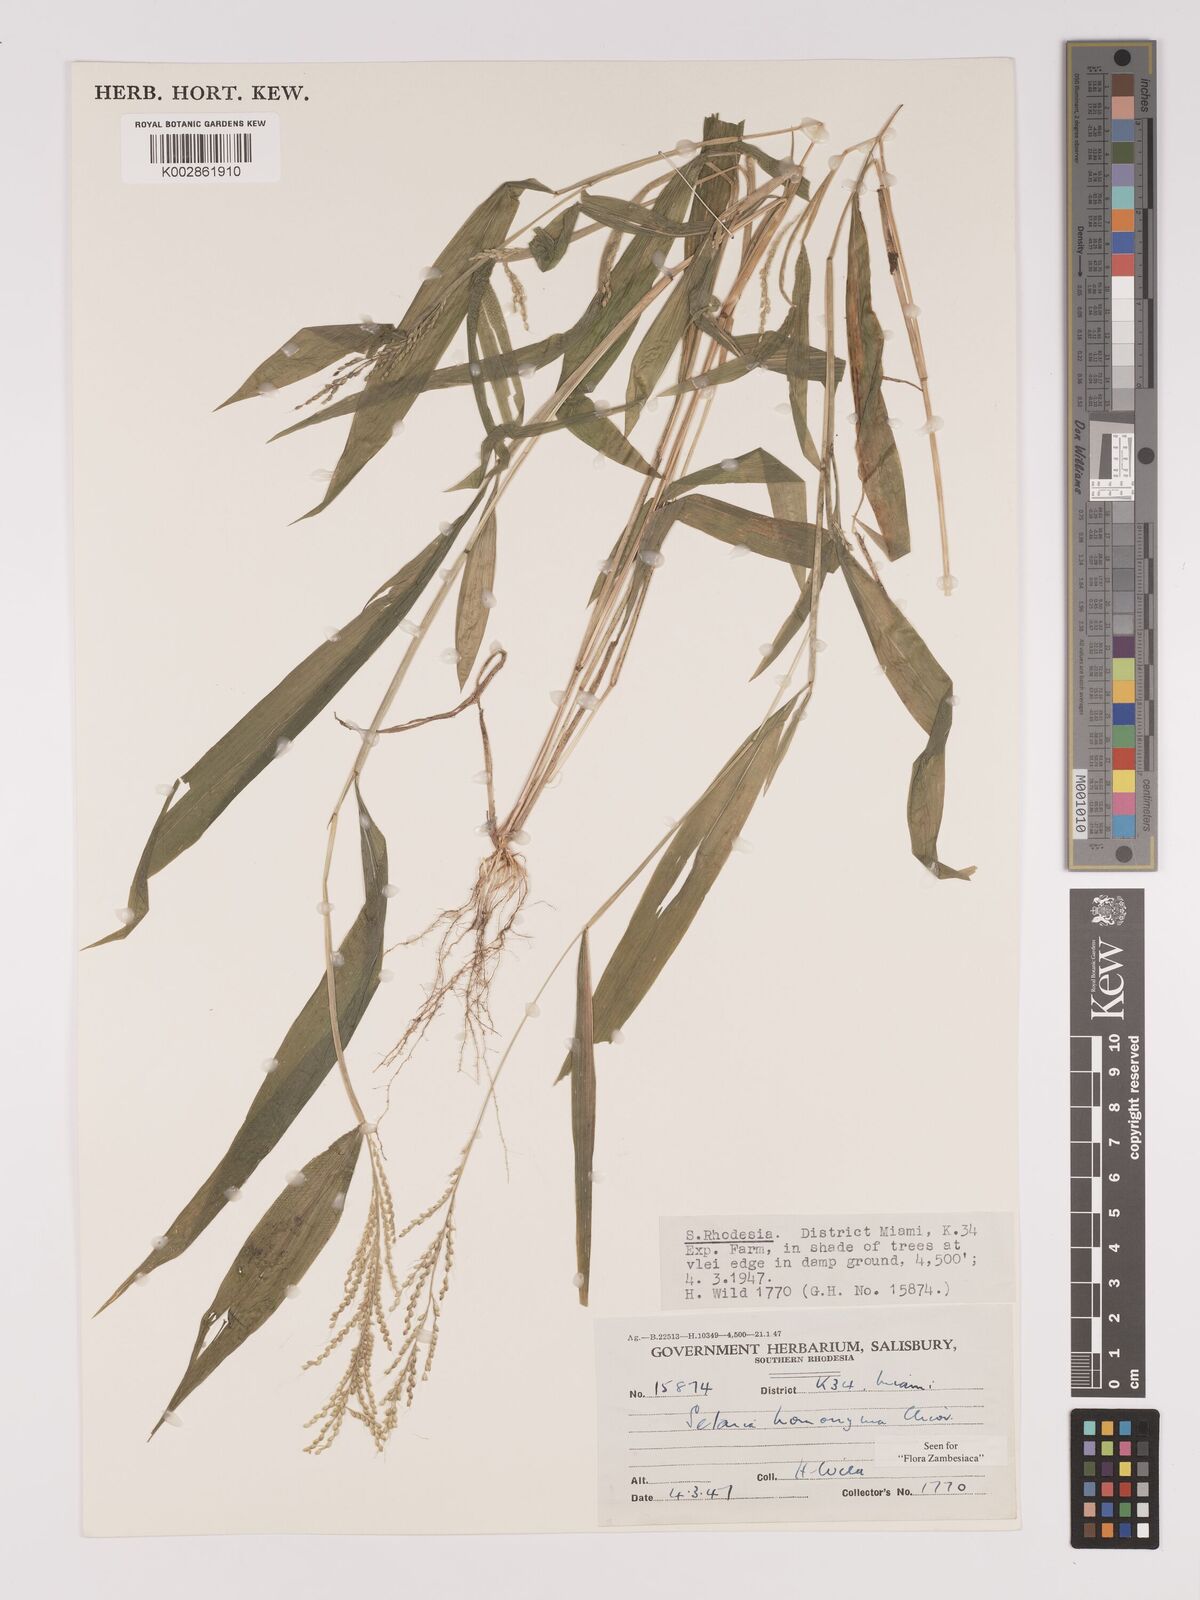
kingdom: Plantae
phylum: Tracheophyta
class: Liliopsida
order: Poales
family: Poaceae
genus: Setaria
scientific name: Setaria homonyma
